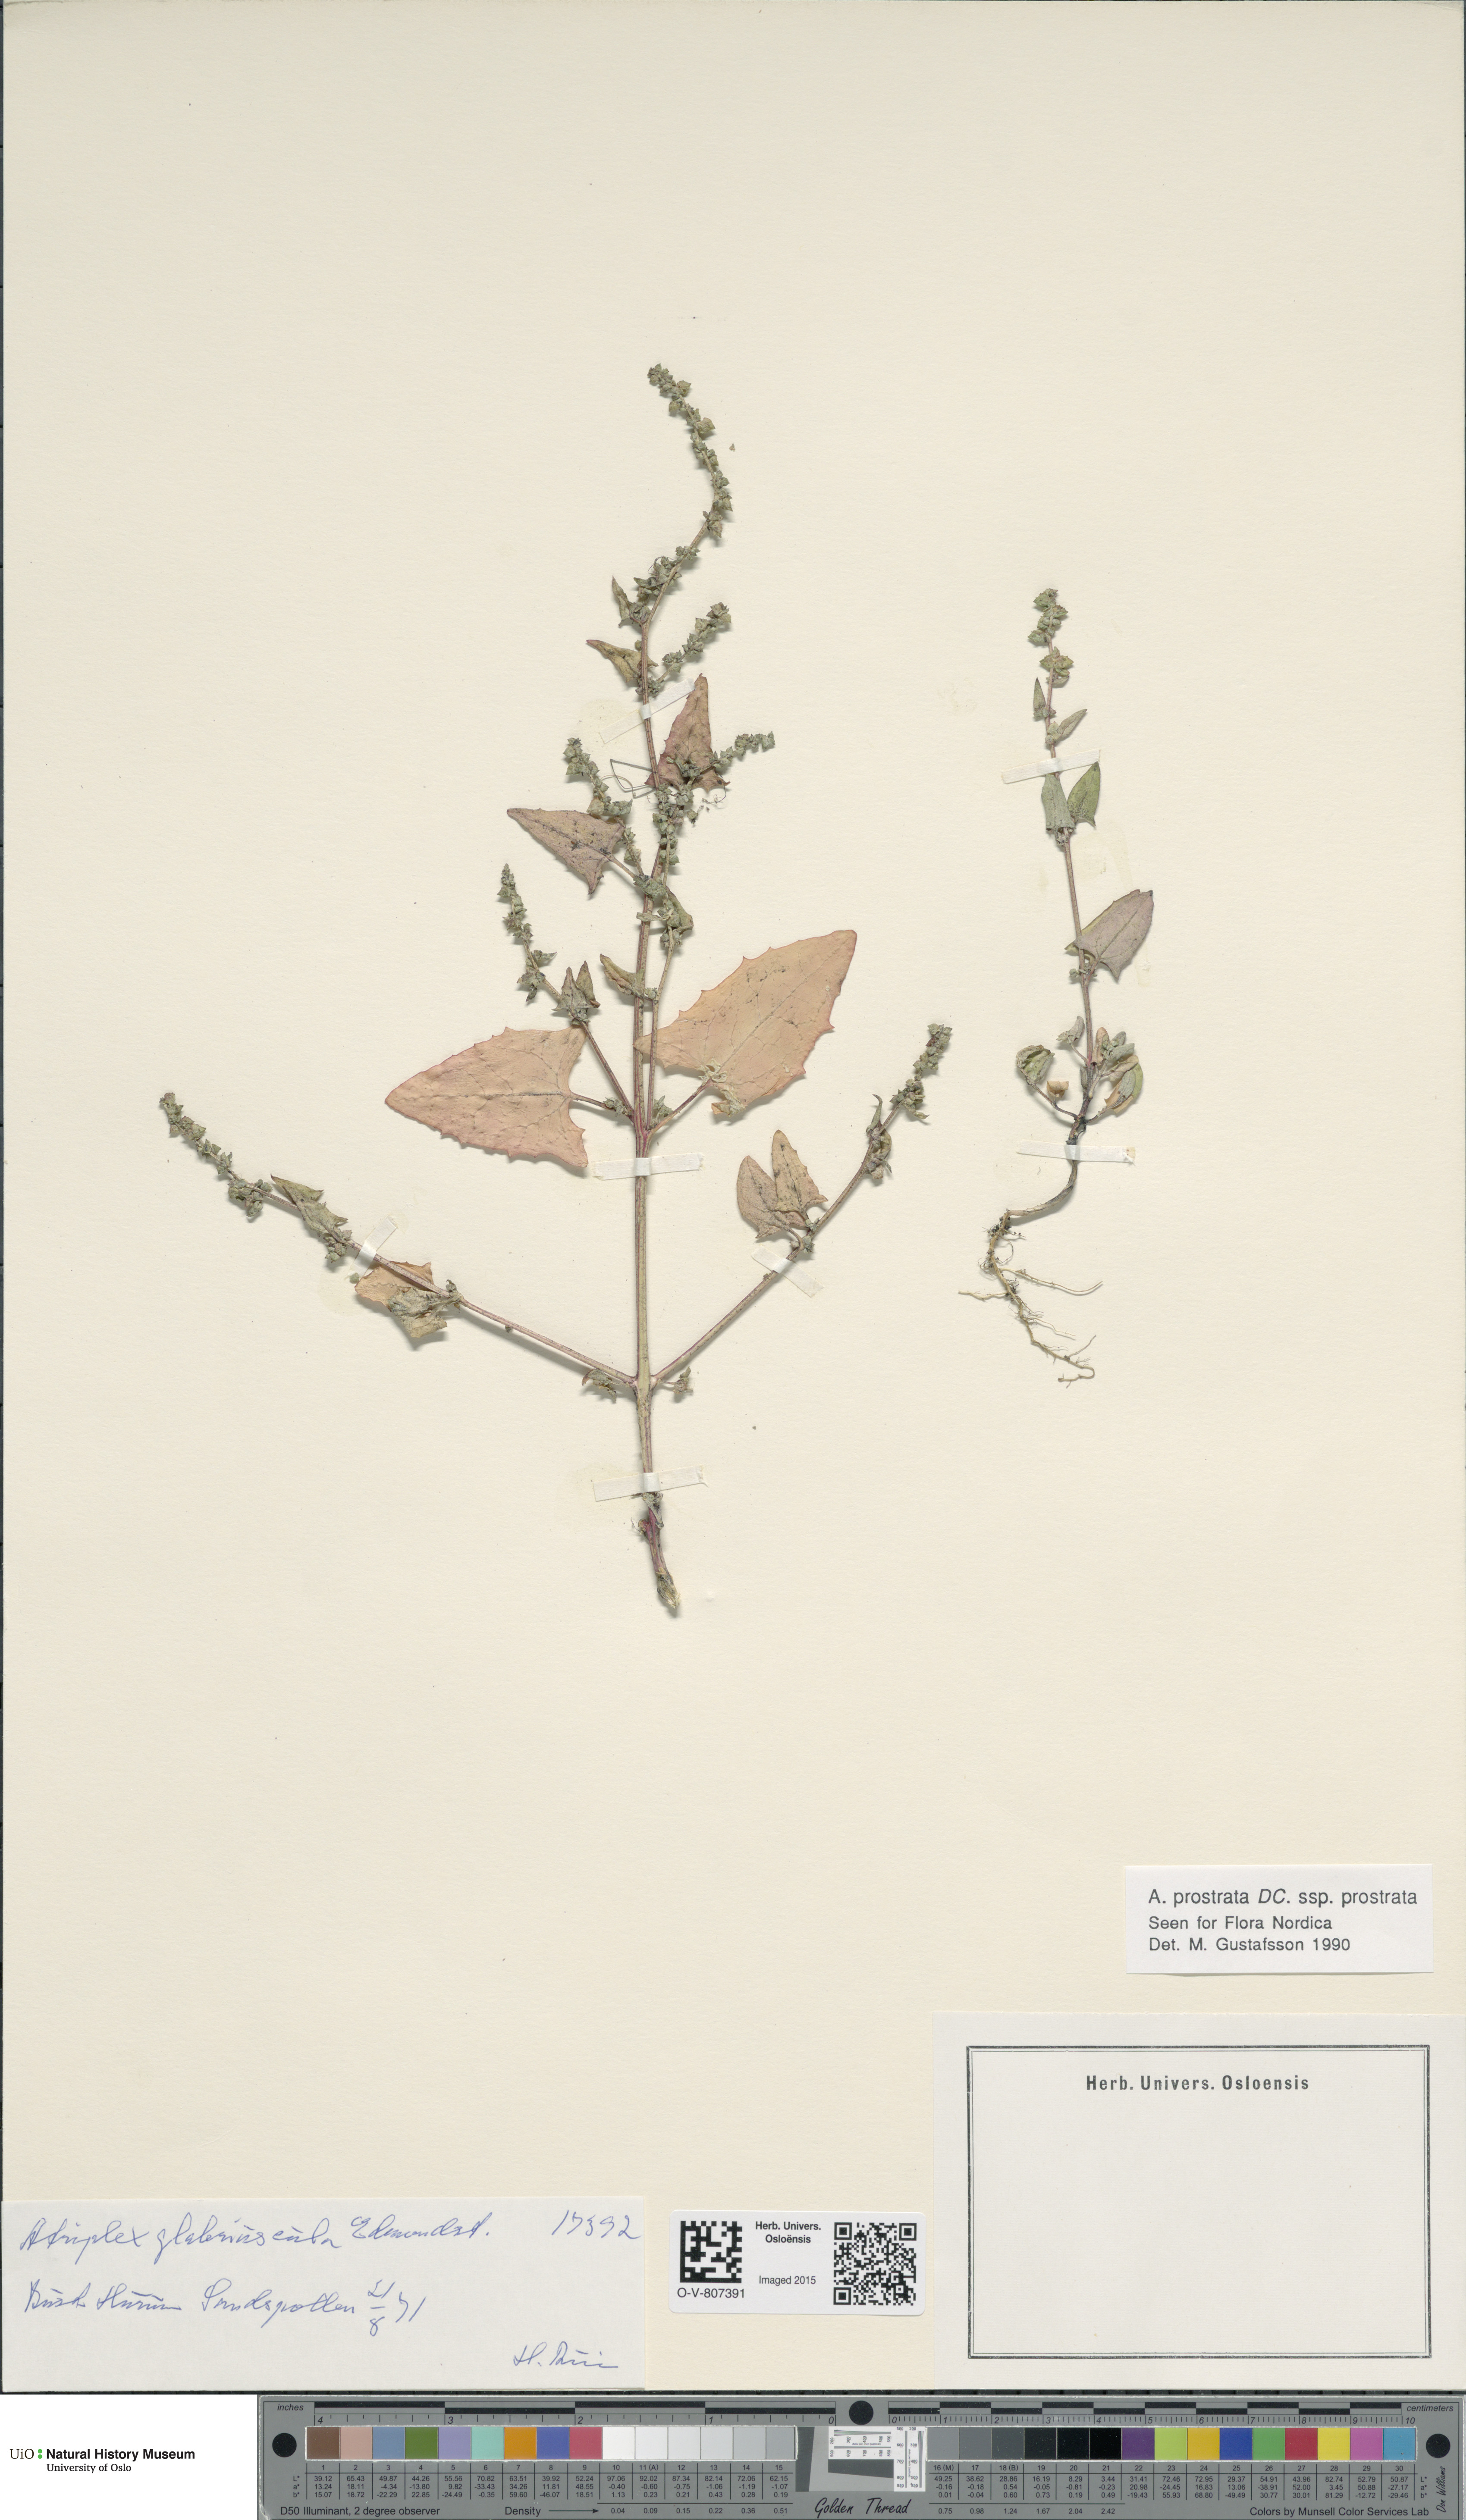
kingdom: Plantae
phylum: Tracheophyta
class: Magnoliopsida
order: Caryophyllales
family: Amaranthaceae
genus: Atriplex
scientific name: Atriplex prostrata
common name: Spear-leaved orache
